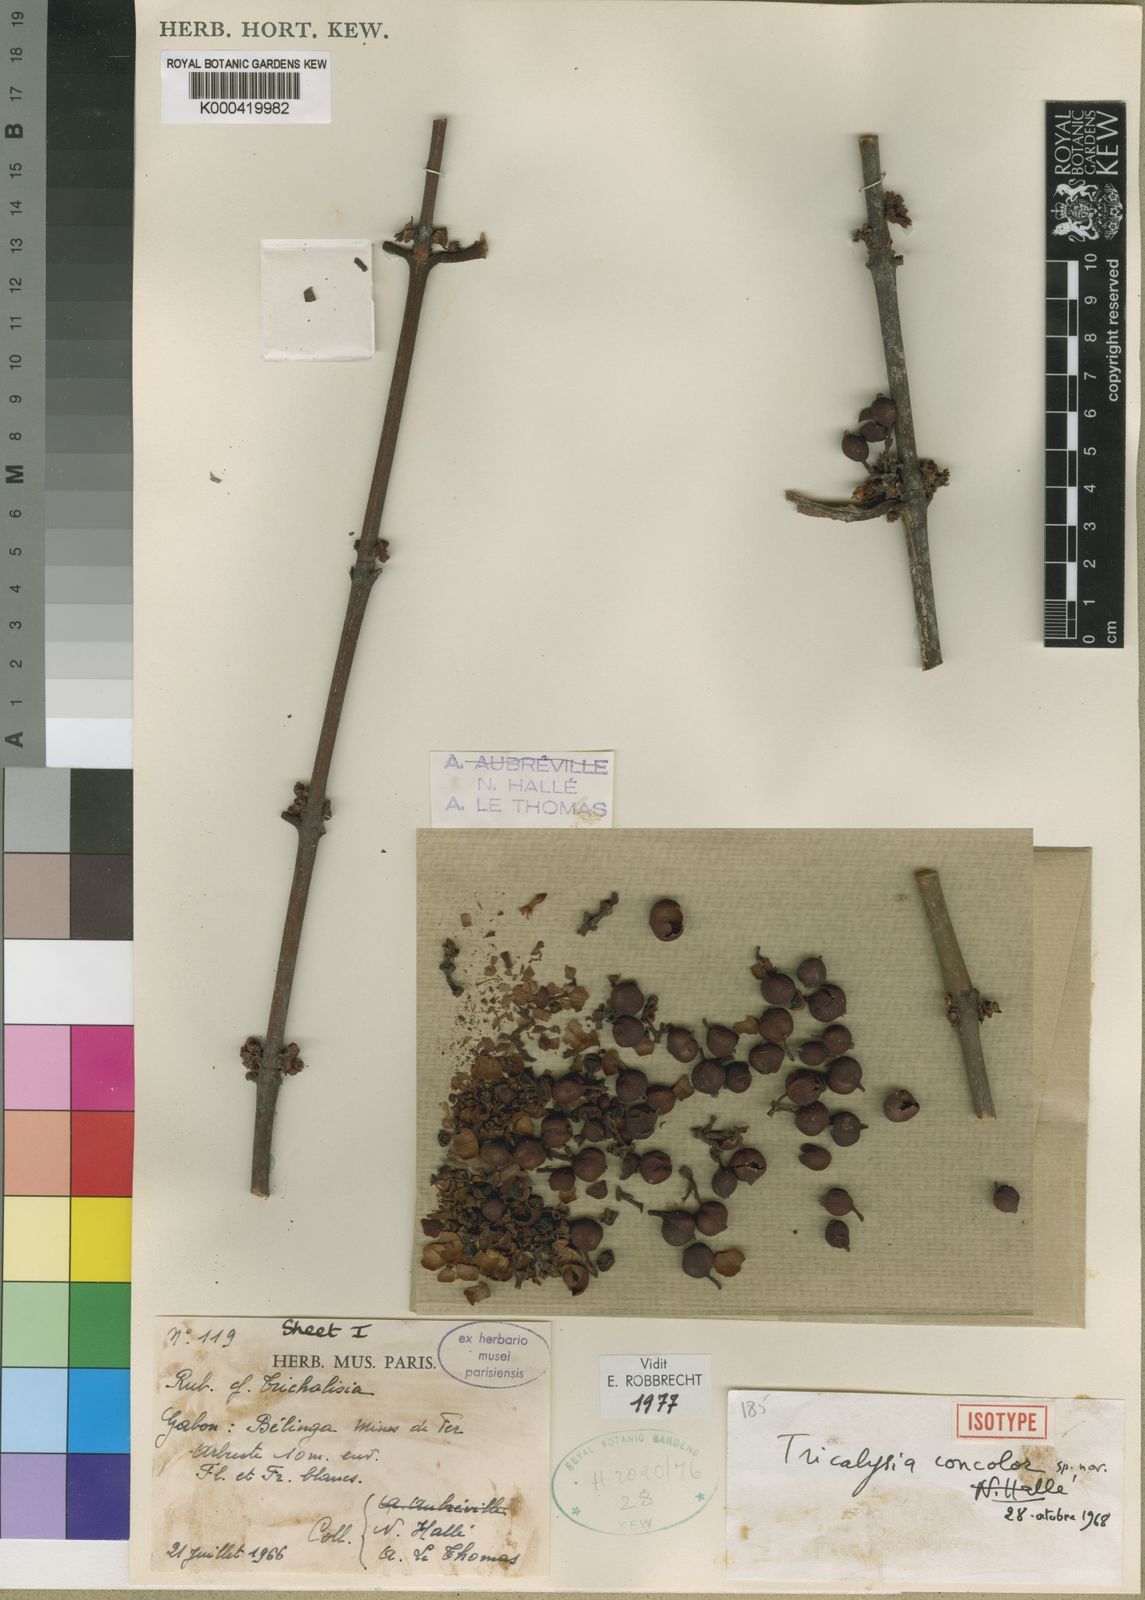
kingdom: Plantae
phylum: Tracheophyta
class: Magnoliopsida
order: Gentianales
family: Rubiaceae
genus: Empogona
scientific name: Empogona concolor
